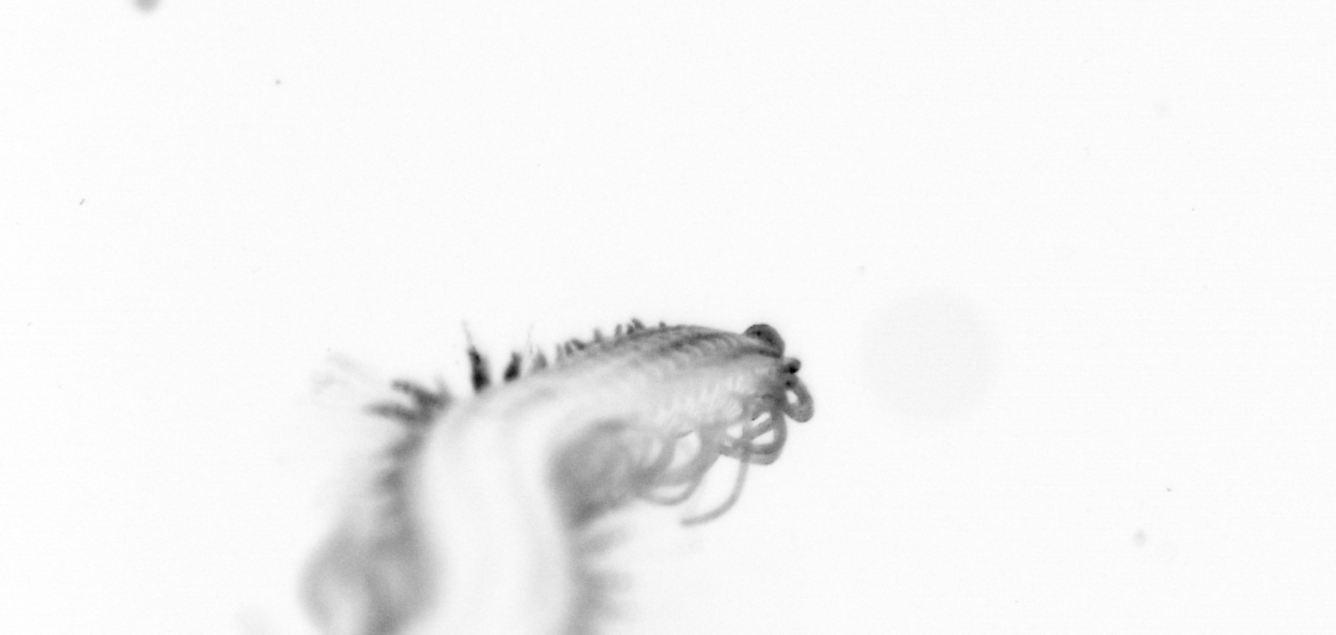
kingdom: Animalia
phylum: Annelida
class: Polychaeta
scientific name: Polychaeta
